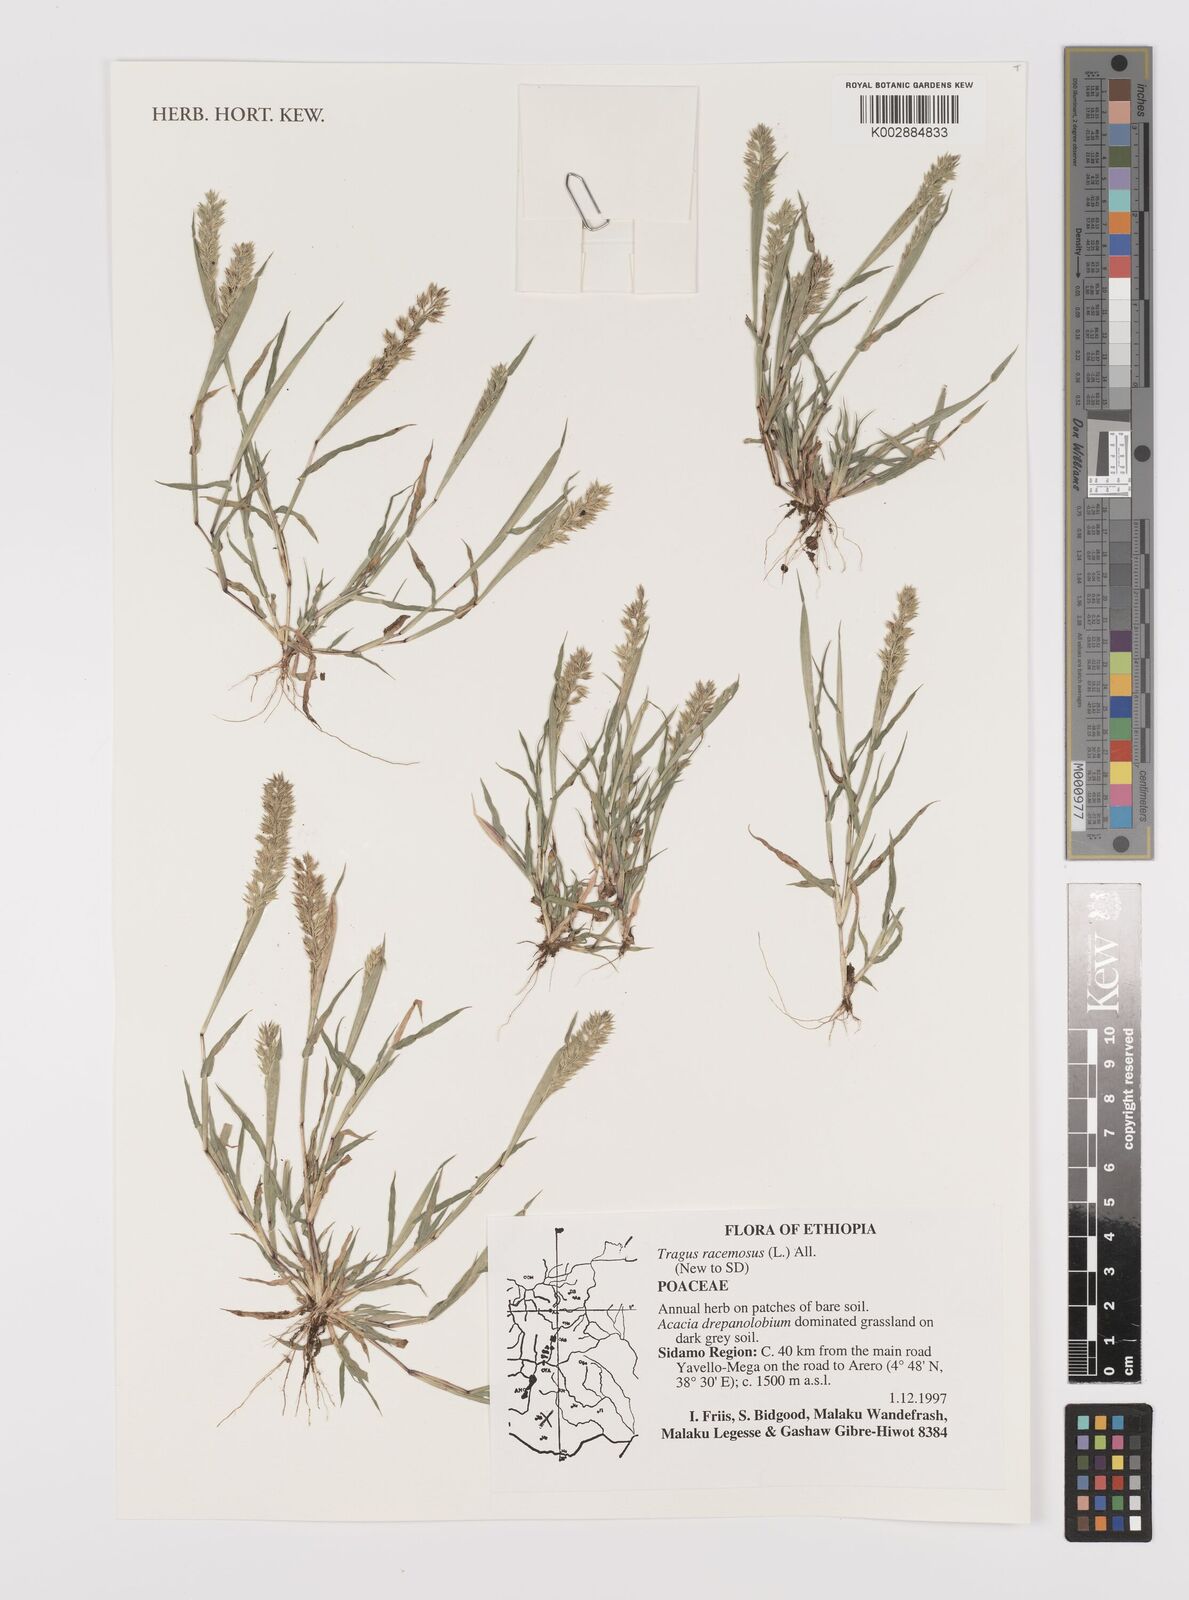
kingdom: Plantae
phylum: Tracheophyta
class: Liliopsida
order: Poales
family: Poaceae
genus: Tragus
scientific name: Tragus racemosus
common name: European bur-grass
